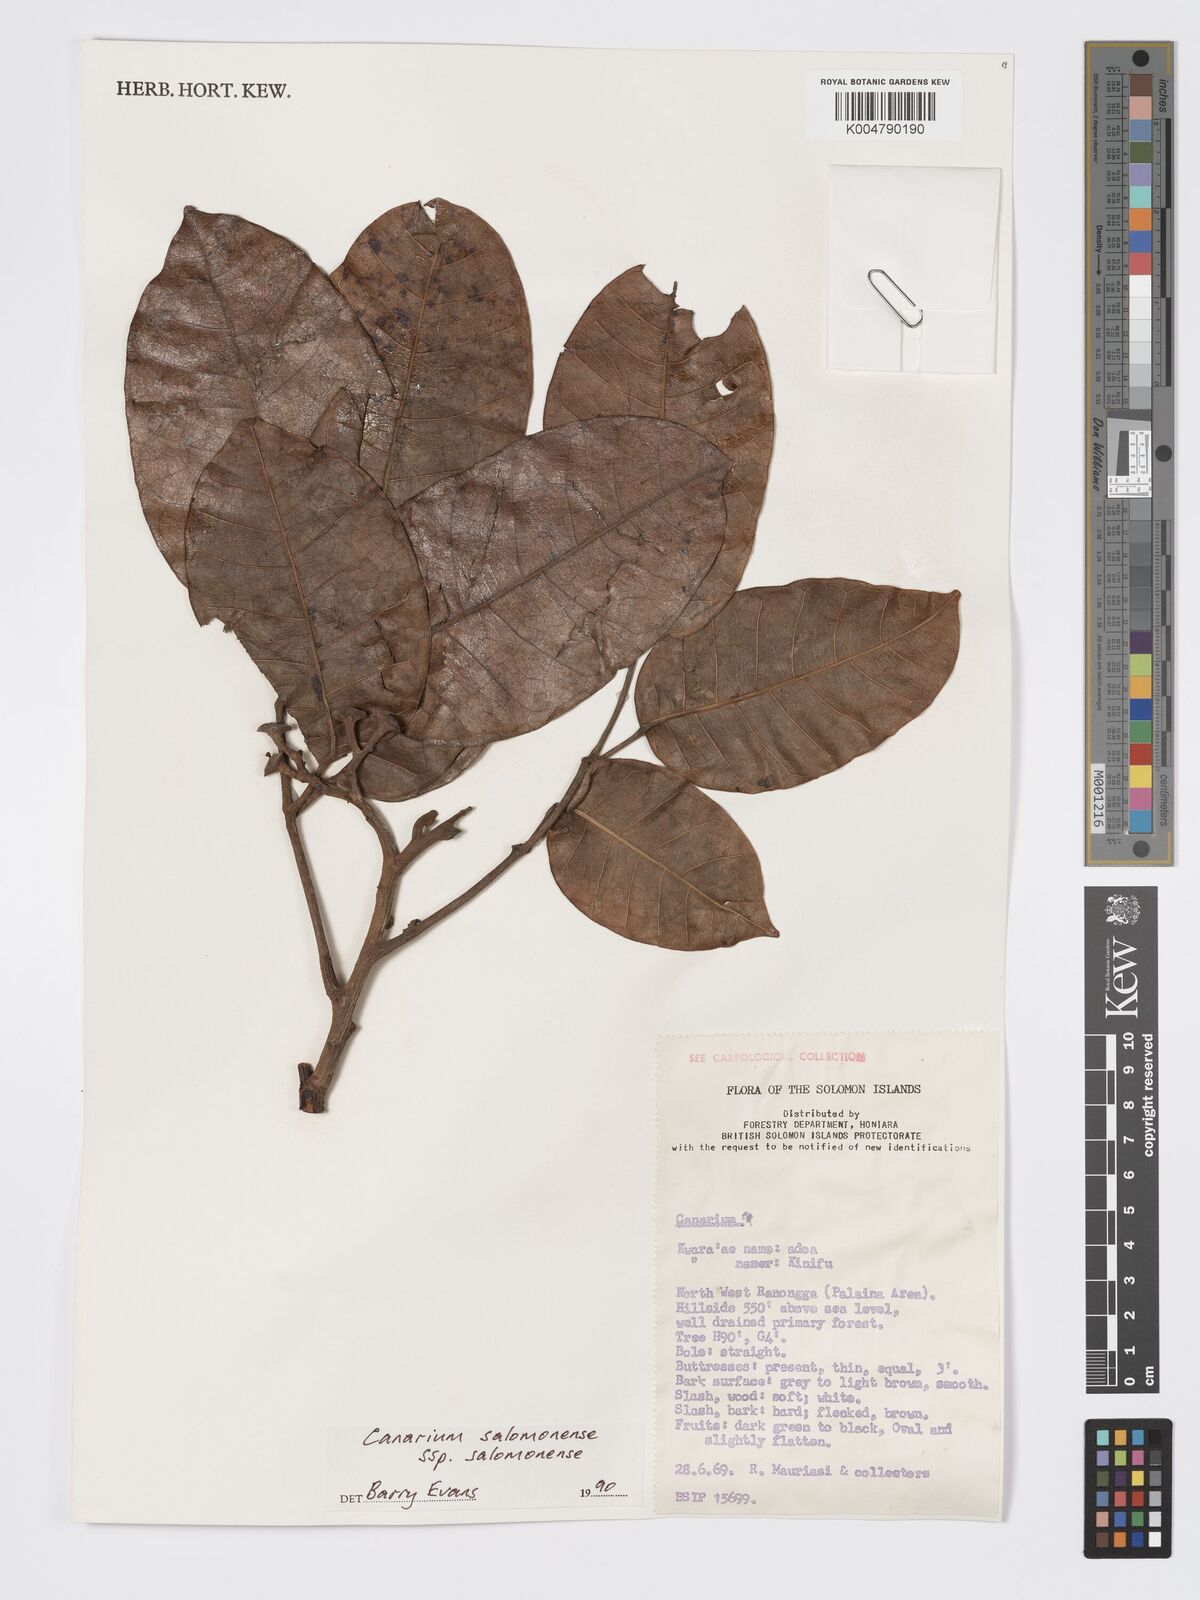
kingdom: Plantae
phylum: Tracheophyta
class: Magnoliopsida
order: Sapindales
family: Burseraceae
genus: Canarium
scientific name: Canarium salomonense
